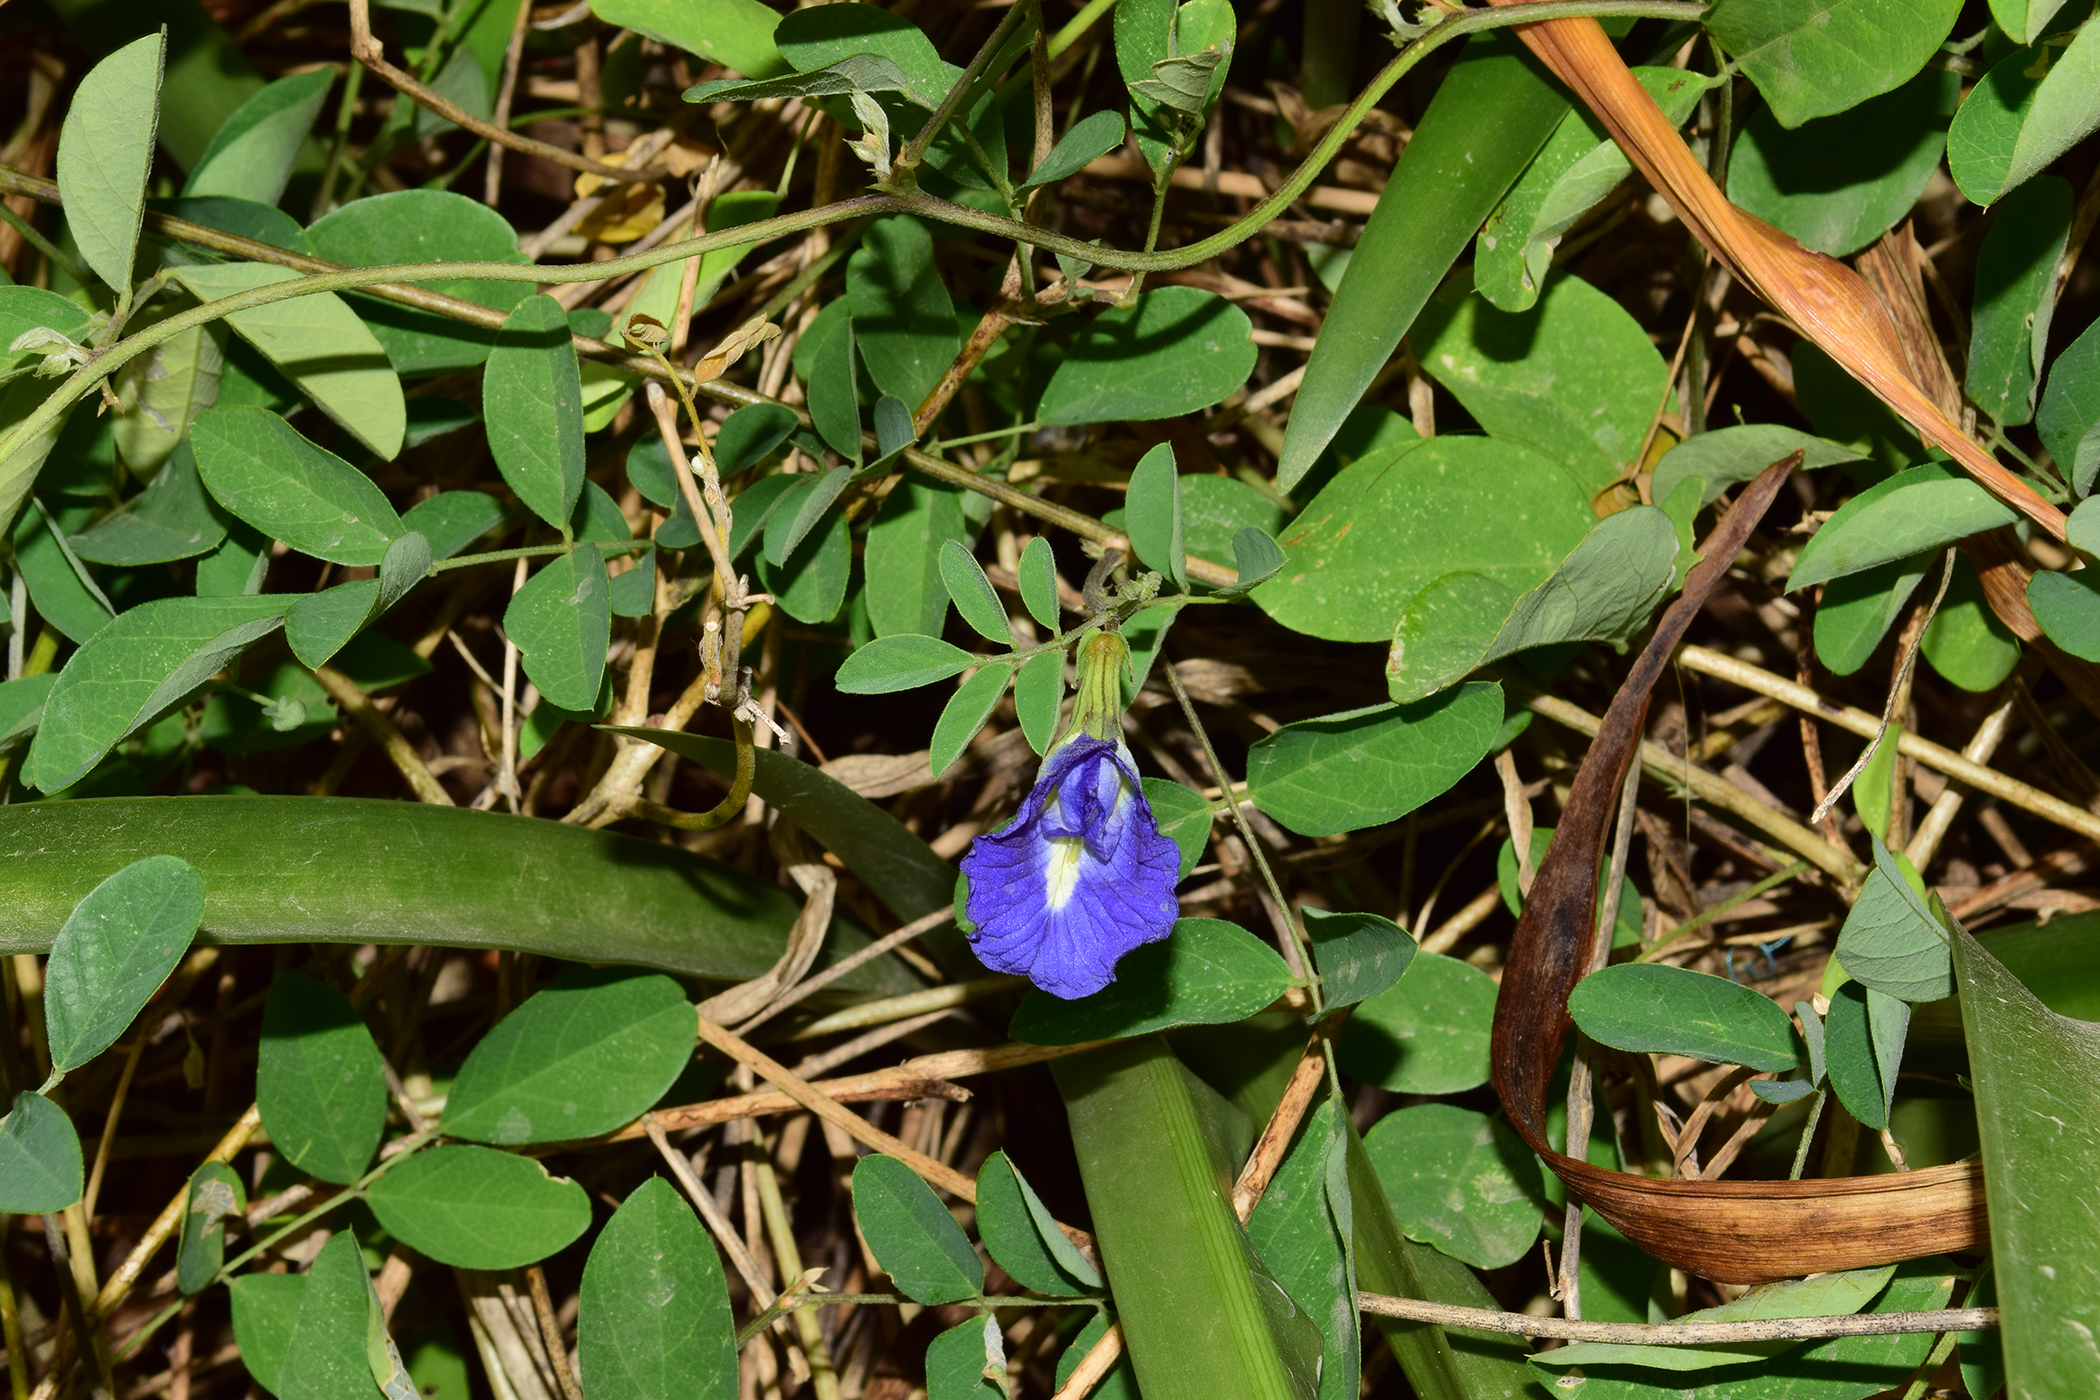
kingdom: Plantae
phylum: Tracheophyta
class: Magnoliopsida
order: Fabales
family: Fabaceae
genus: Clitoria
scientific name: Clitoria ternatea
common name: Asian pigeonwings
